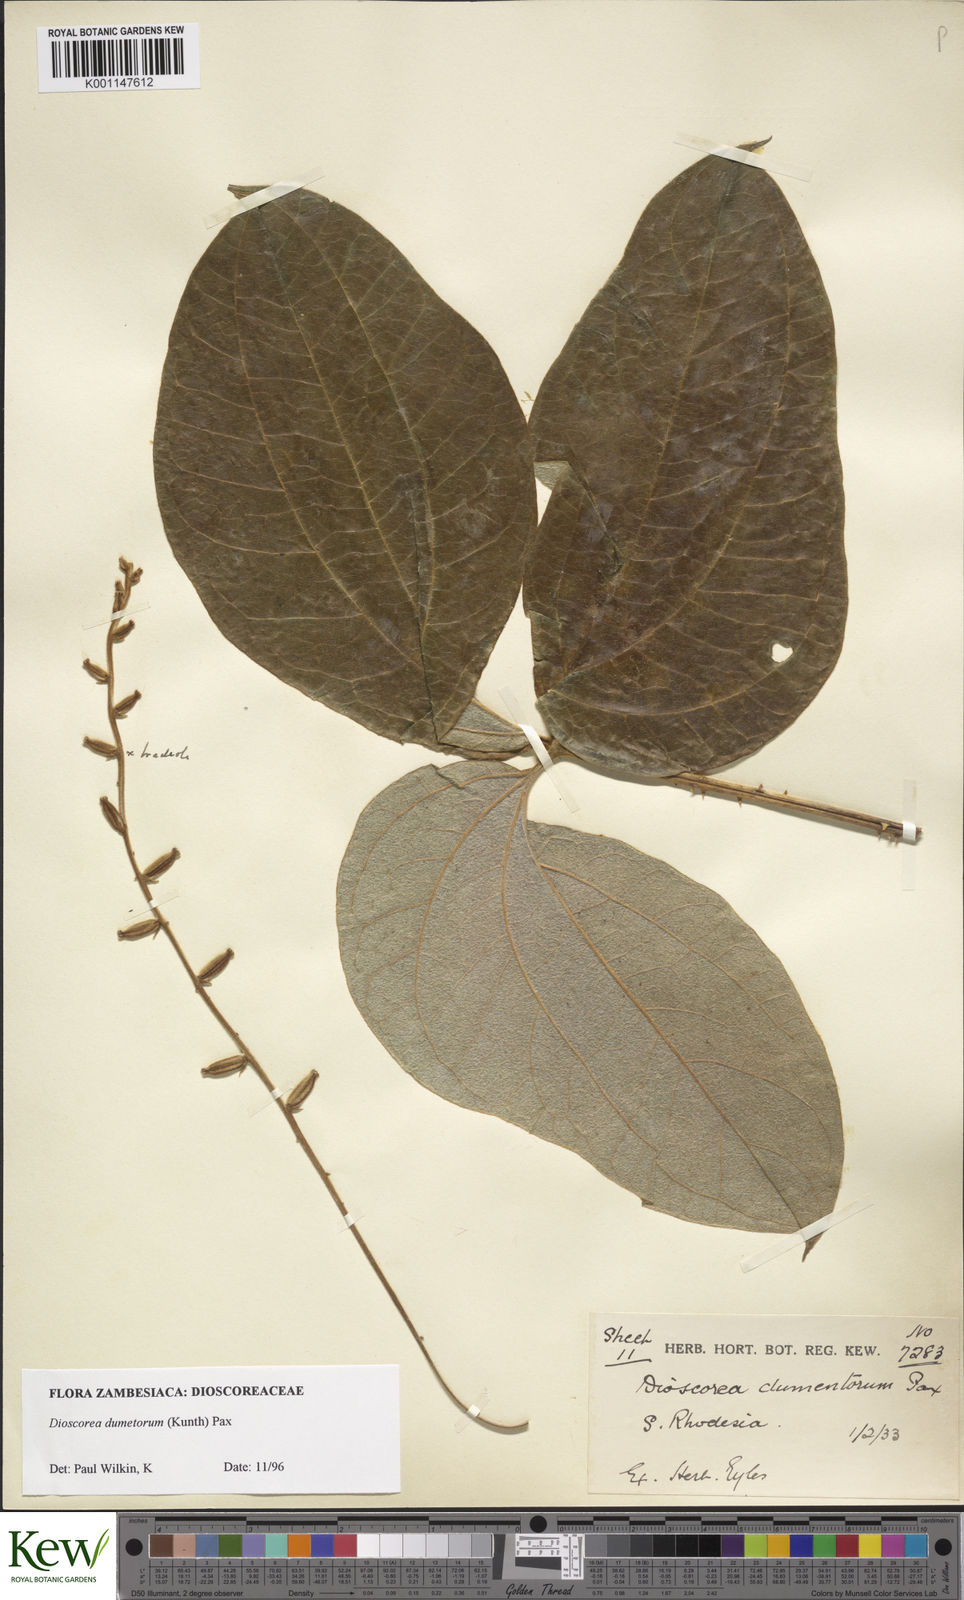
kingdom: Plantae
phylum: Tracheophyta
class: Liliopsida
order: Dioscoreales
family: Dioscoreaceae
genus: Dioscorea
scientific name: Dioscorea dumetorum
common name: African bitter yam
